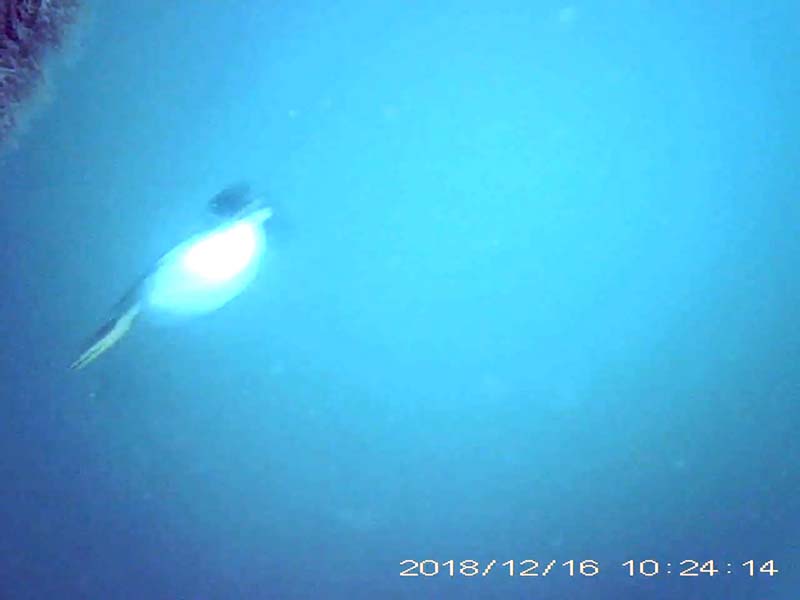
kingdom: Animalia
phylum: Chordata
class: Aves
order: Anseriformes
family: Anatidae
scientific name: Anatidae
